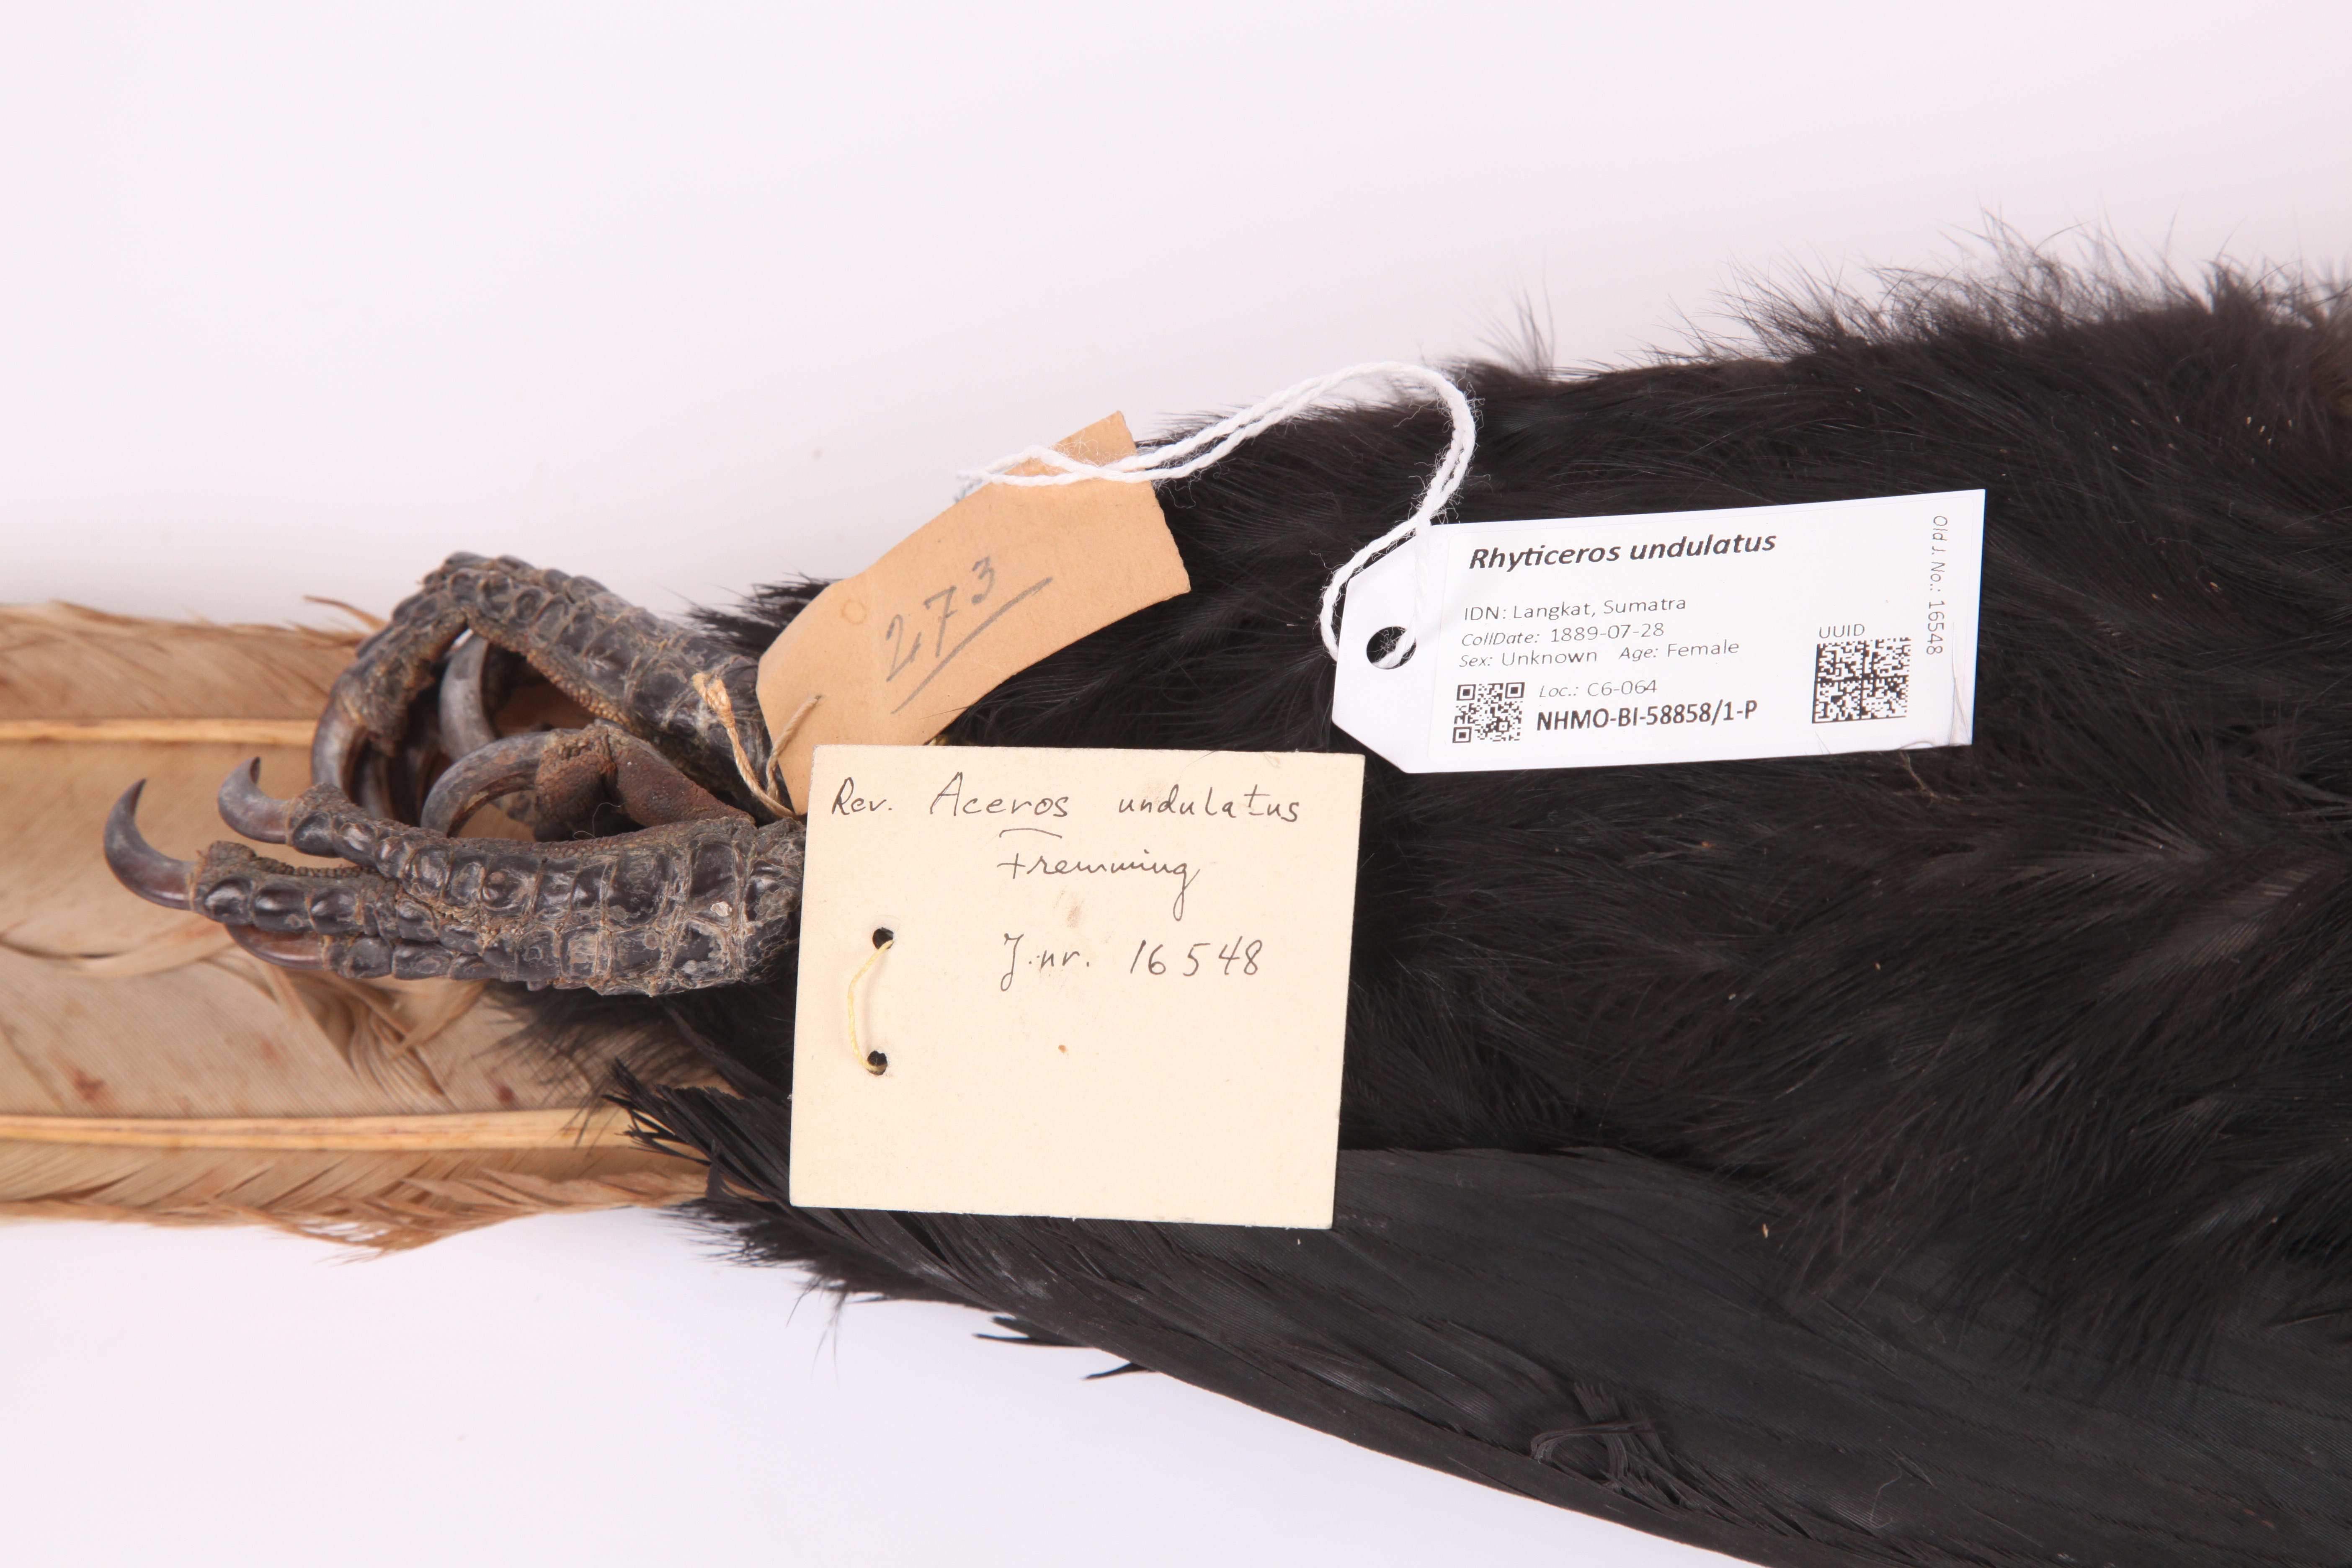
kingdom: Animalia
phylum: Chordata
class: Aves
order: Bucerotiformes
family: Bucerotidae
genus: Rhyticeros
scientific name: Rhyticeros undulatus
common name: Wreathed hornbill
